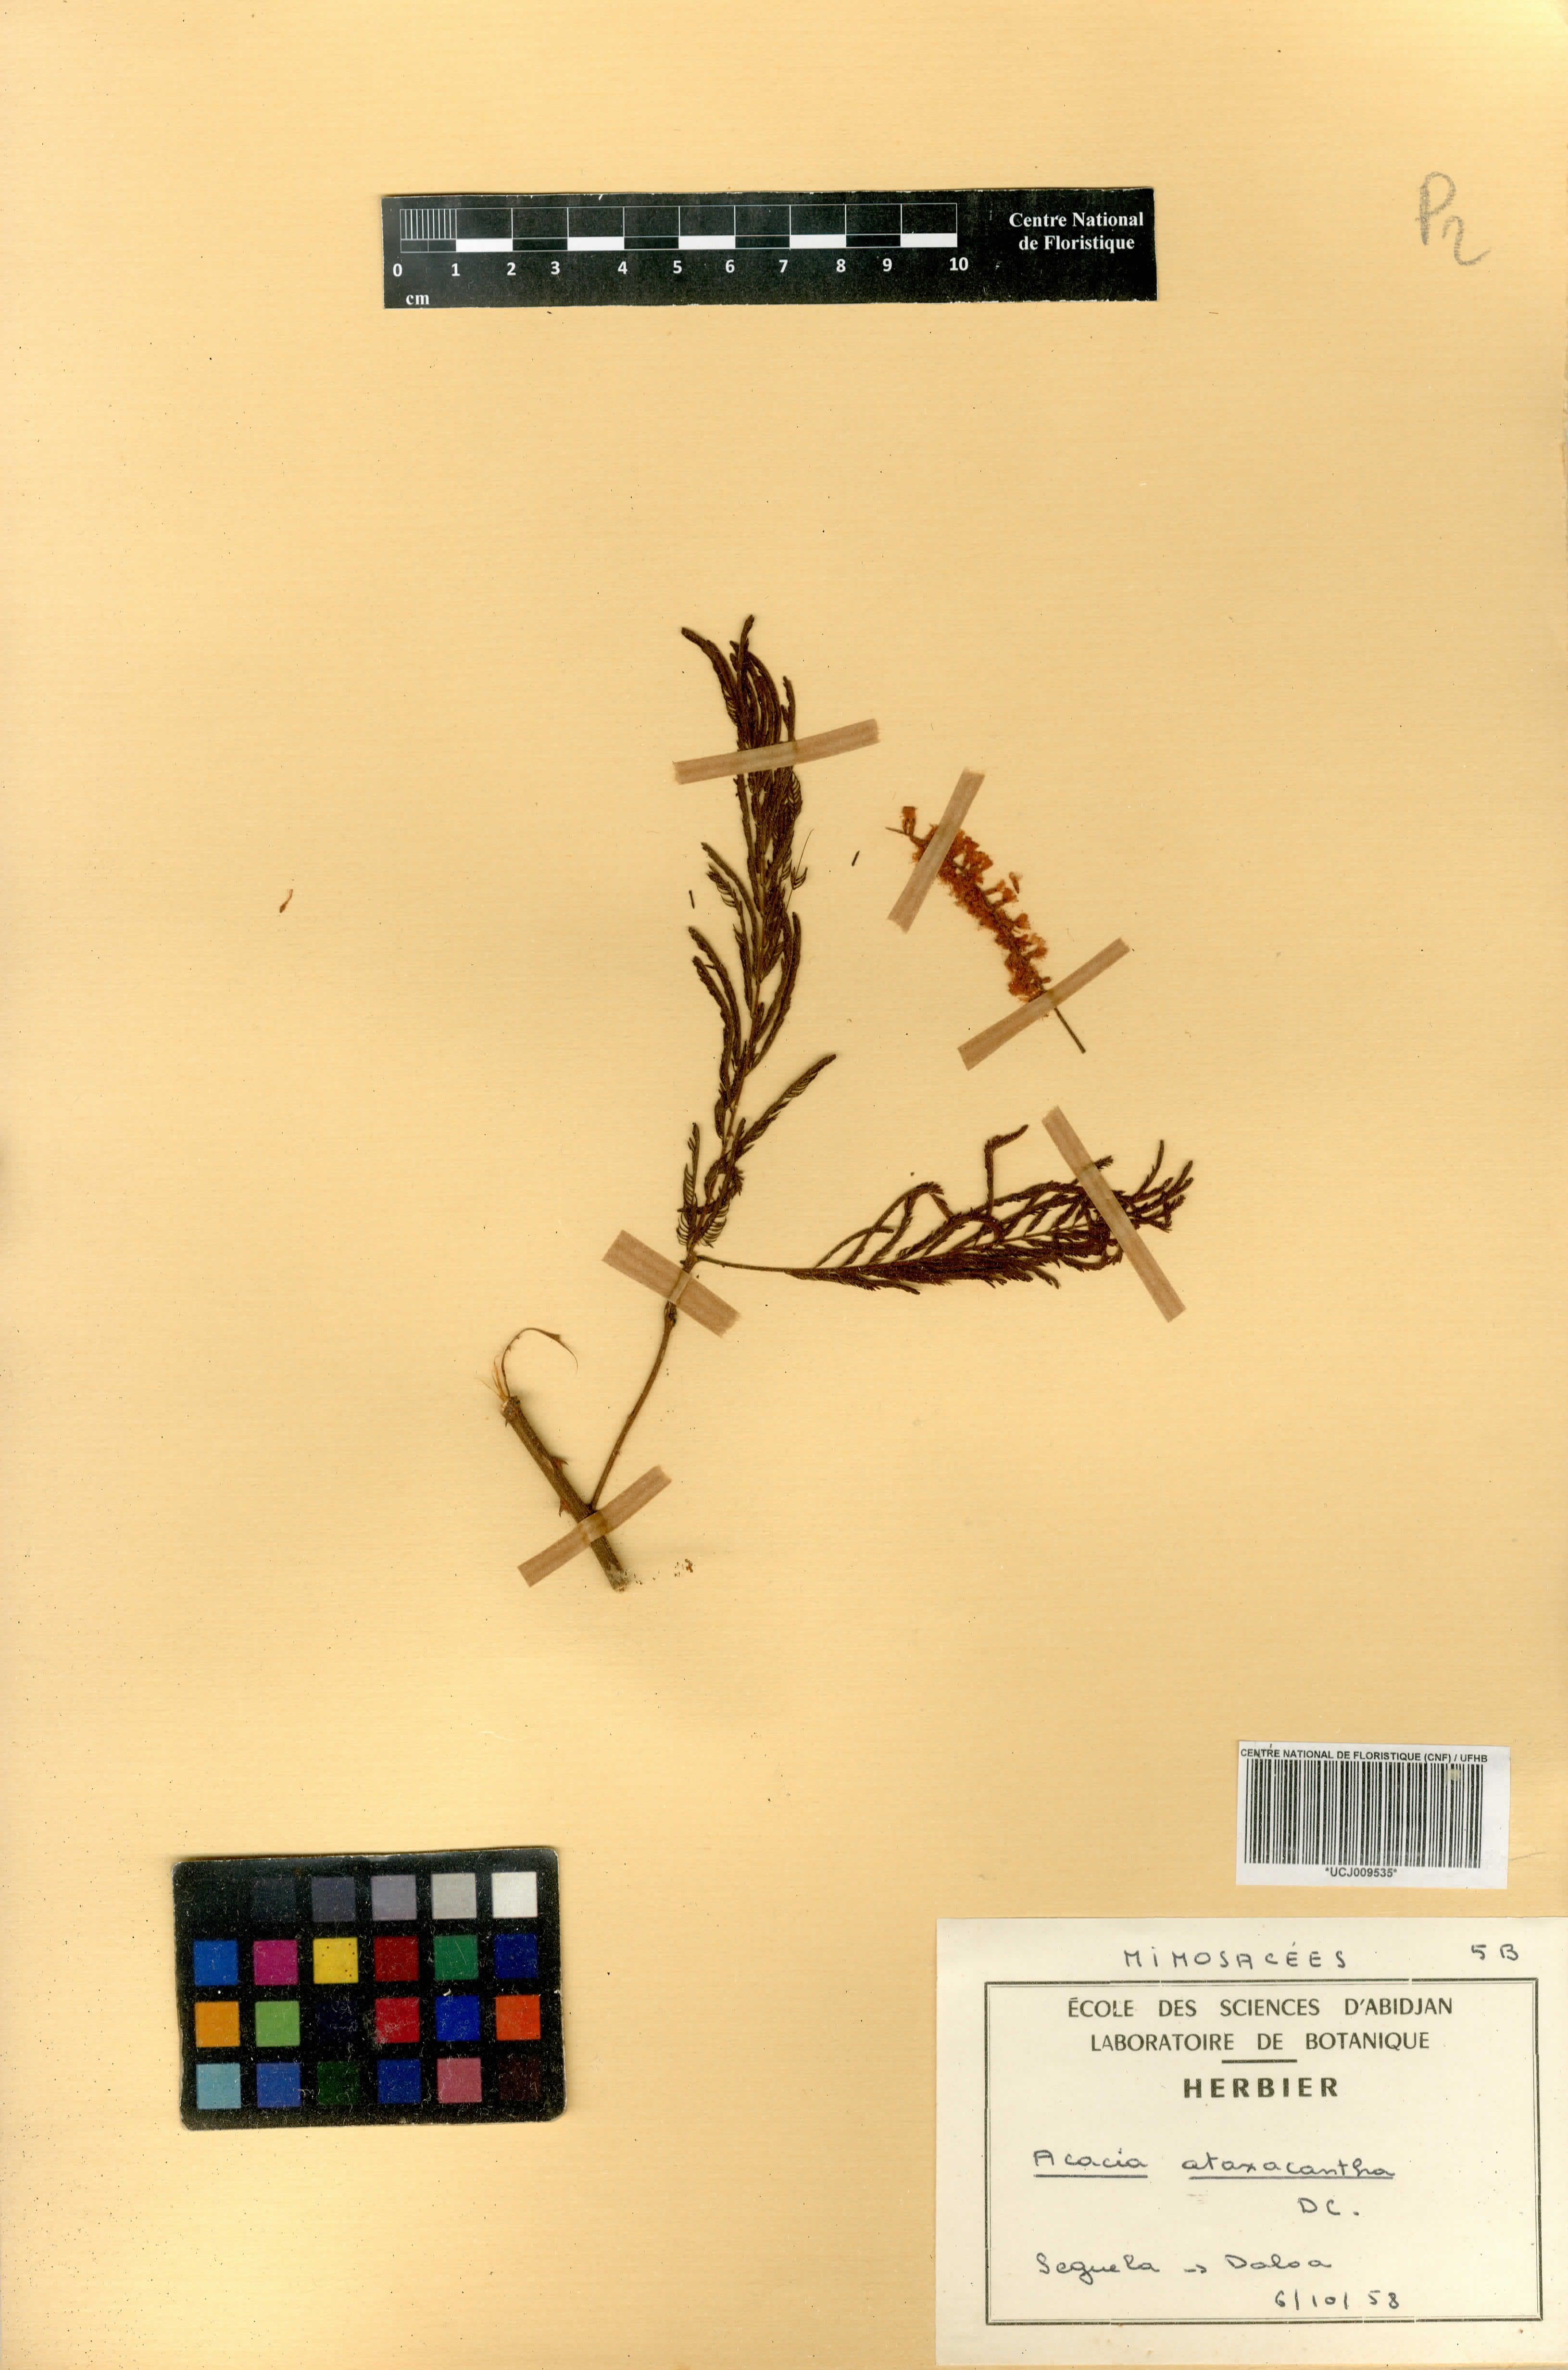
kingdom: Plantae
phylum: Tracheophyta
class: Magnoliopsida
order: Fabales
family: Fabaceae
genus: Senegalia
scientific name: Senegalia ataxacantha
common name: Flame acacia
